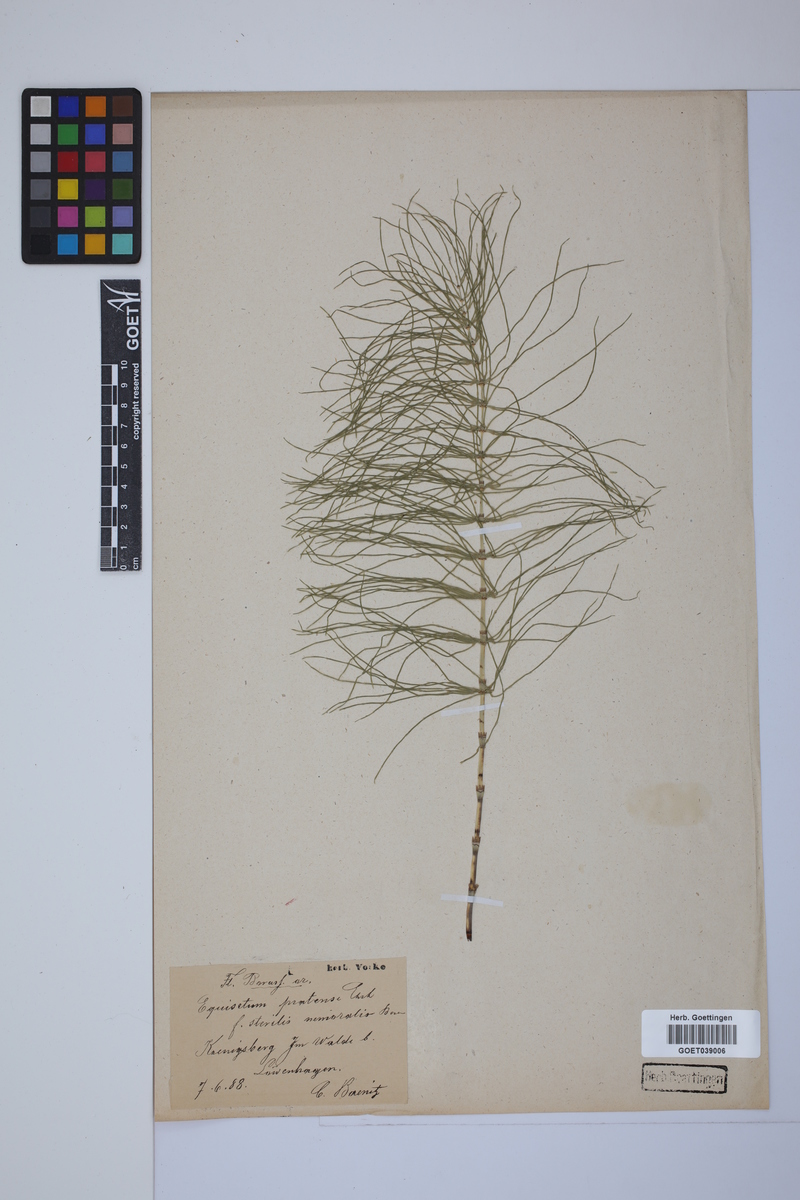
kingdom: Plantae
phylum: Tracheophyta
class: Polypodiopsida
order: Equisetales
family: Equisetaceae
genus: Equisetum
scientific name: Equisetum pratense
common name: Meadow horsetail
